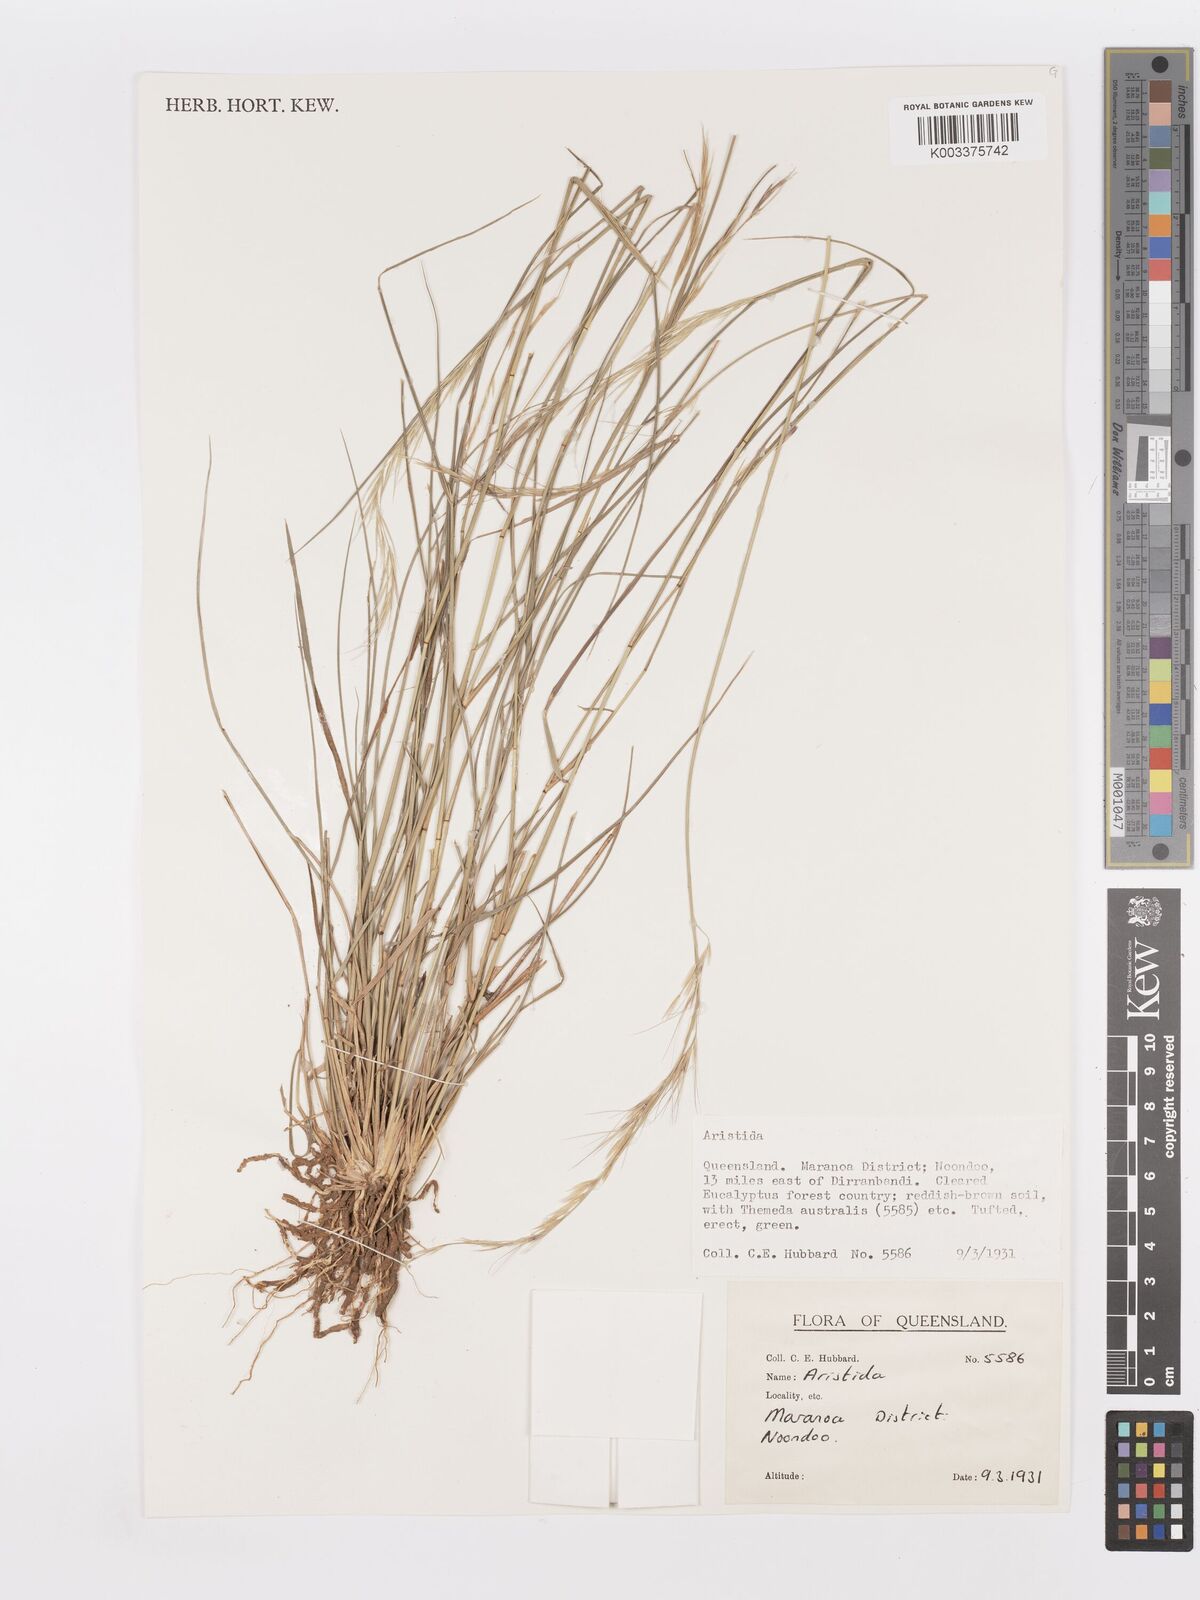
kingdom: Plantae
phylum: Tracheophyta
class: Liliopsida
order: Poales
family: Poaceae
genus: Aristida
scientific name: Aristida
